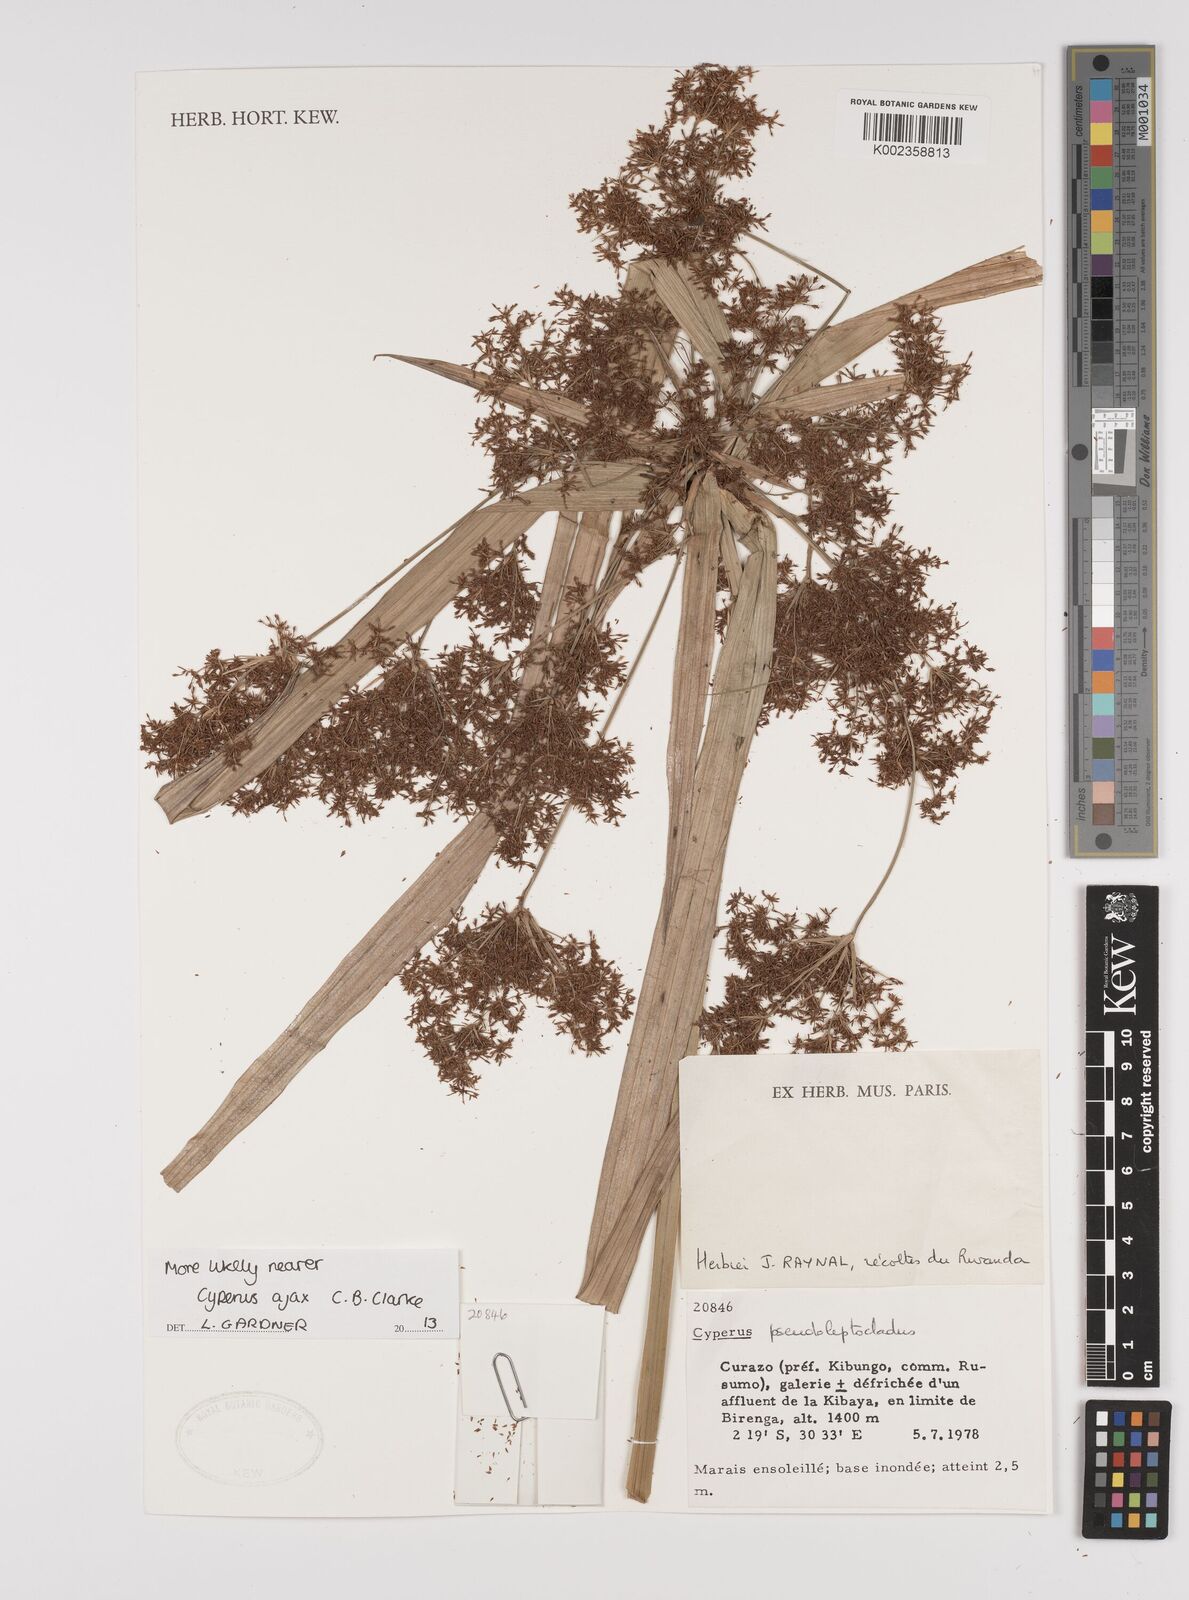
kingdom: Plantae
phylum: Tracheophyta
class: Liliopsida
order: Poales
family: Cyperaceae
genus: Cyperus
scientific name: Cyperus
